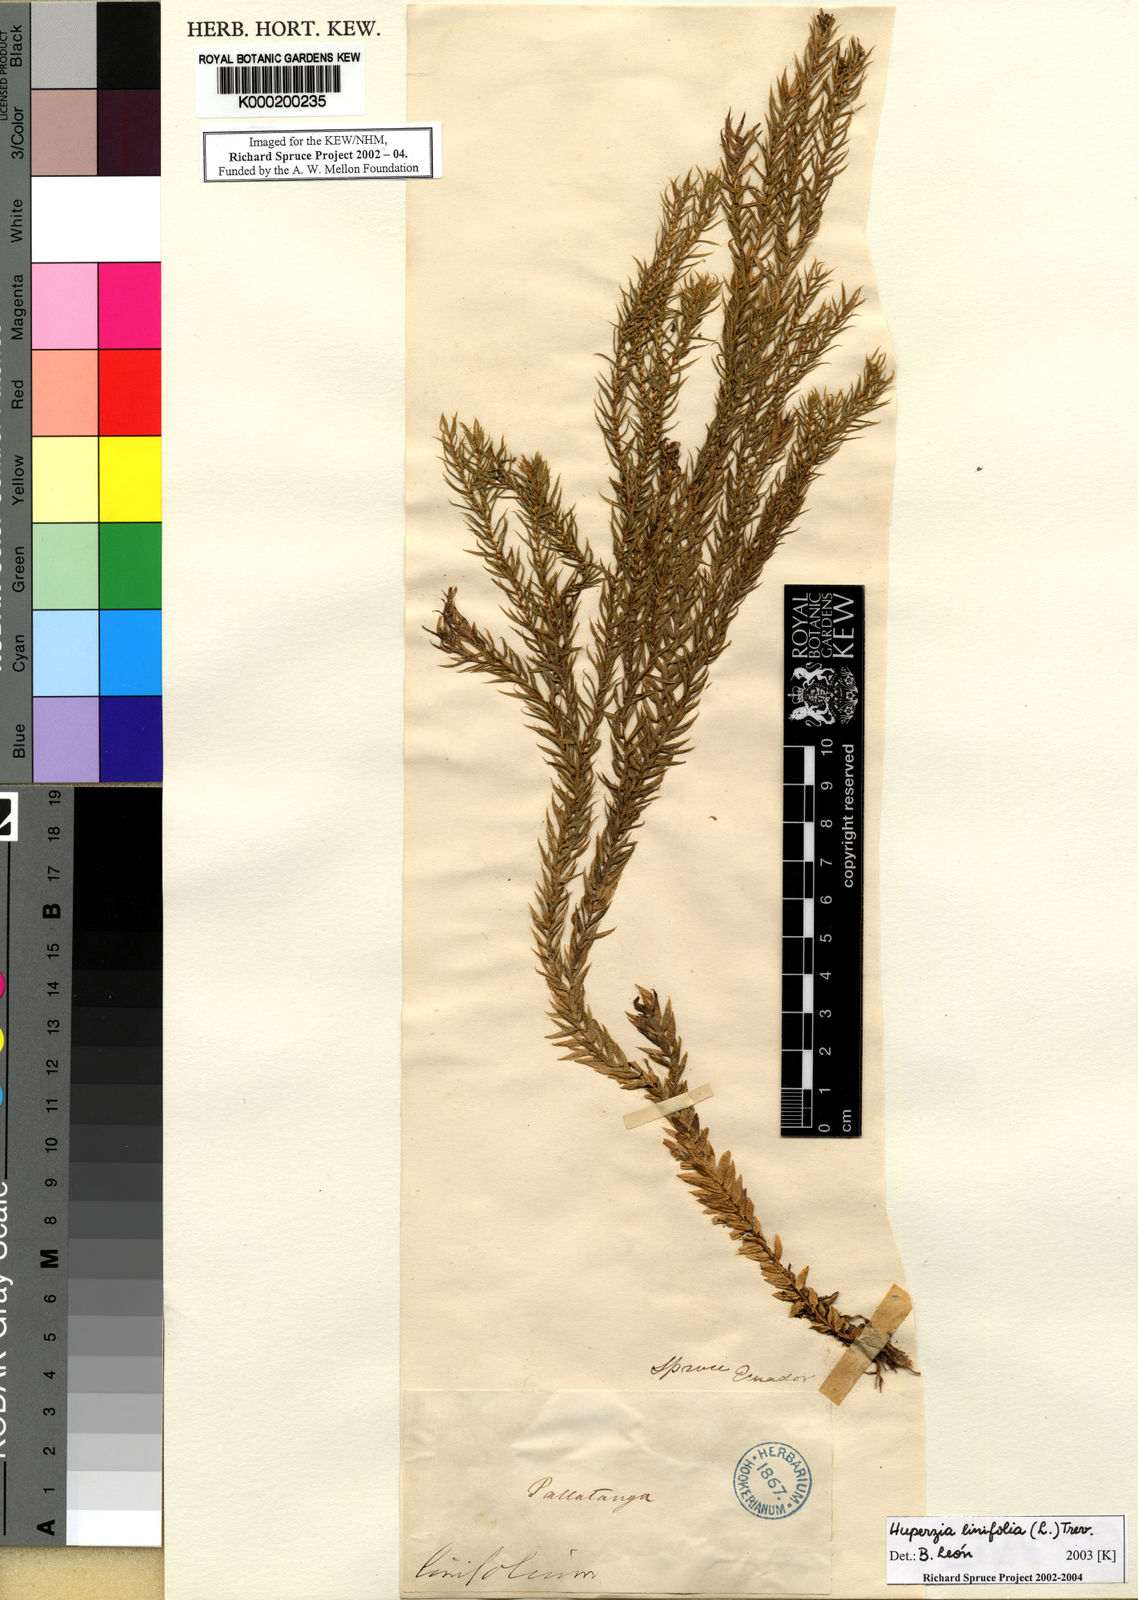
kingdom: Plantae
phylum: Tracheophyta
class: Lycopodiopsida
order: Lycopodiales
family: Lycopodiaceae
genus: Phlegmariurus
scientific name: Phlegmariurus linifolius
